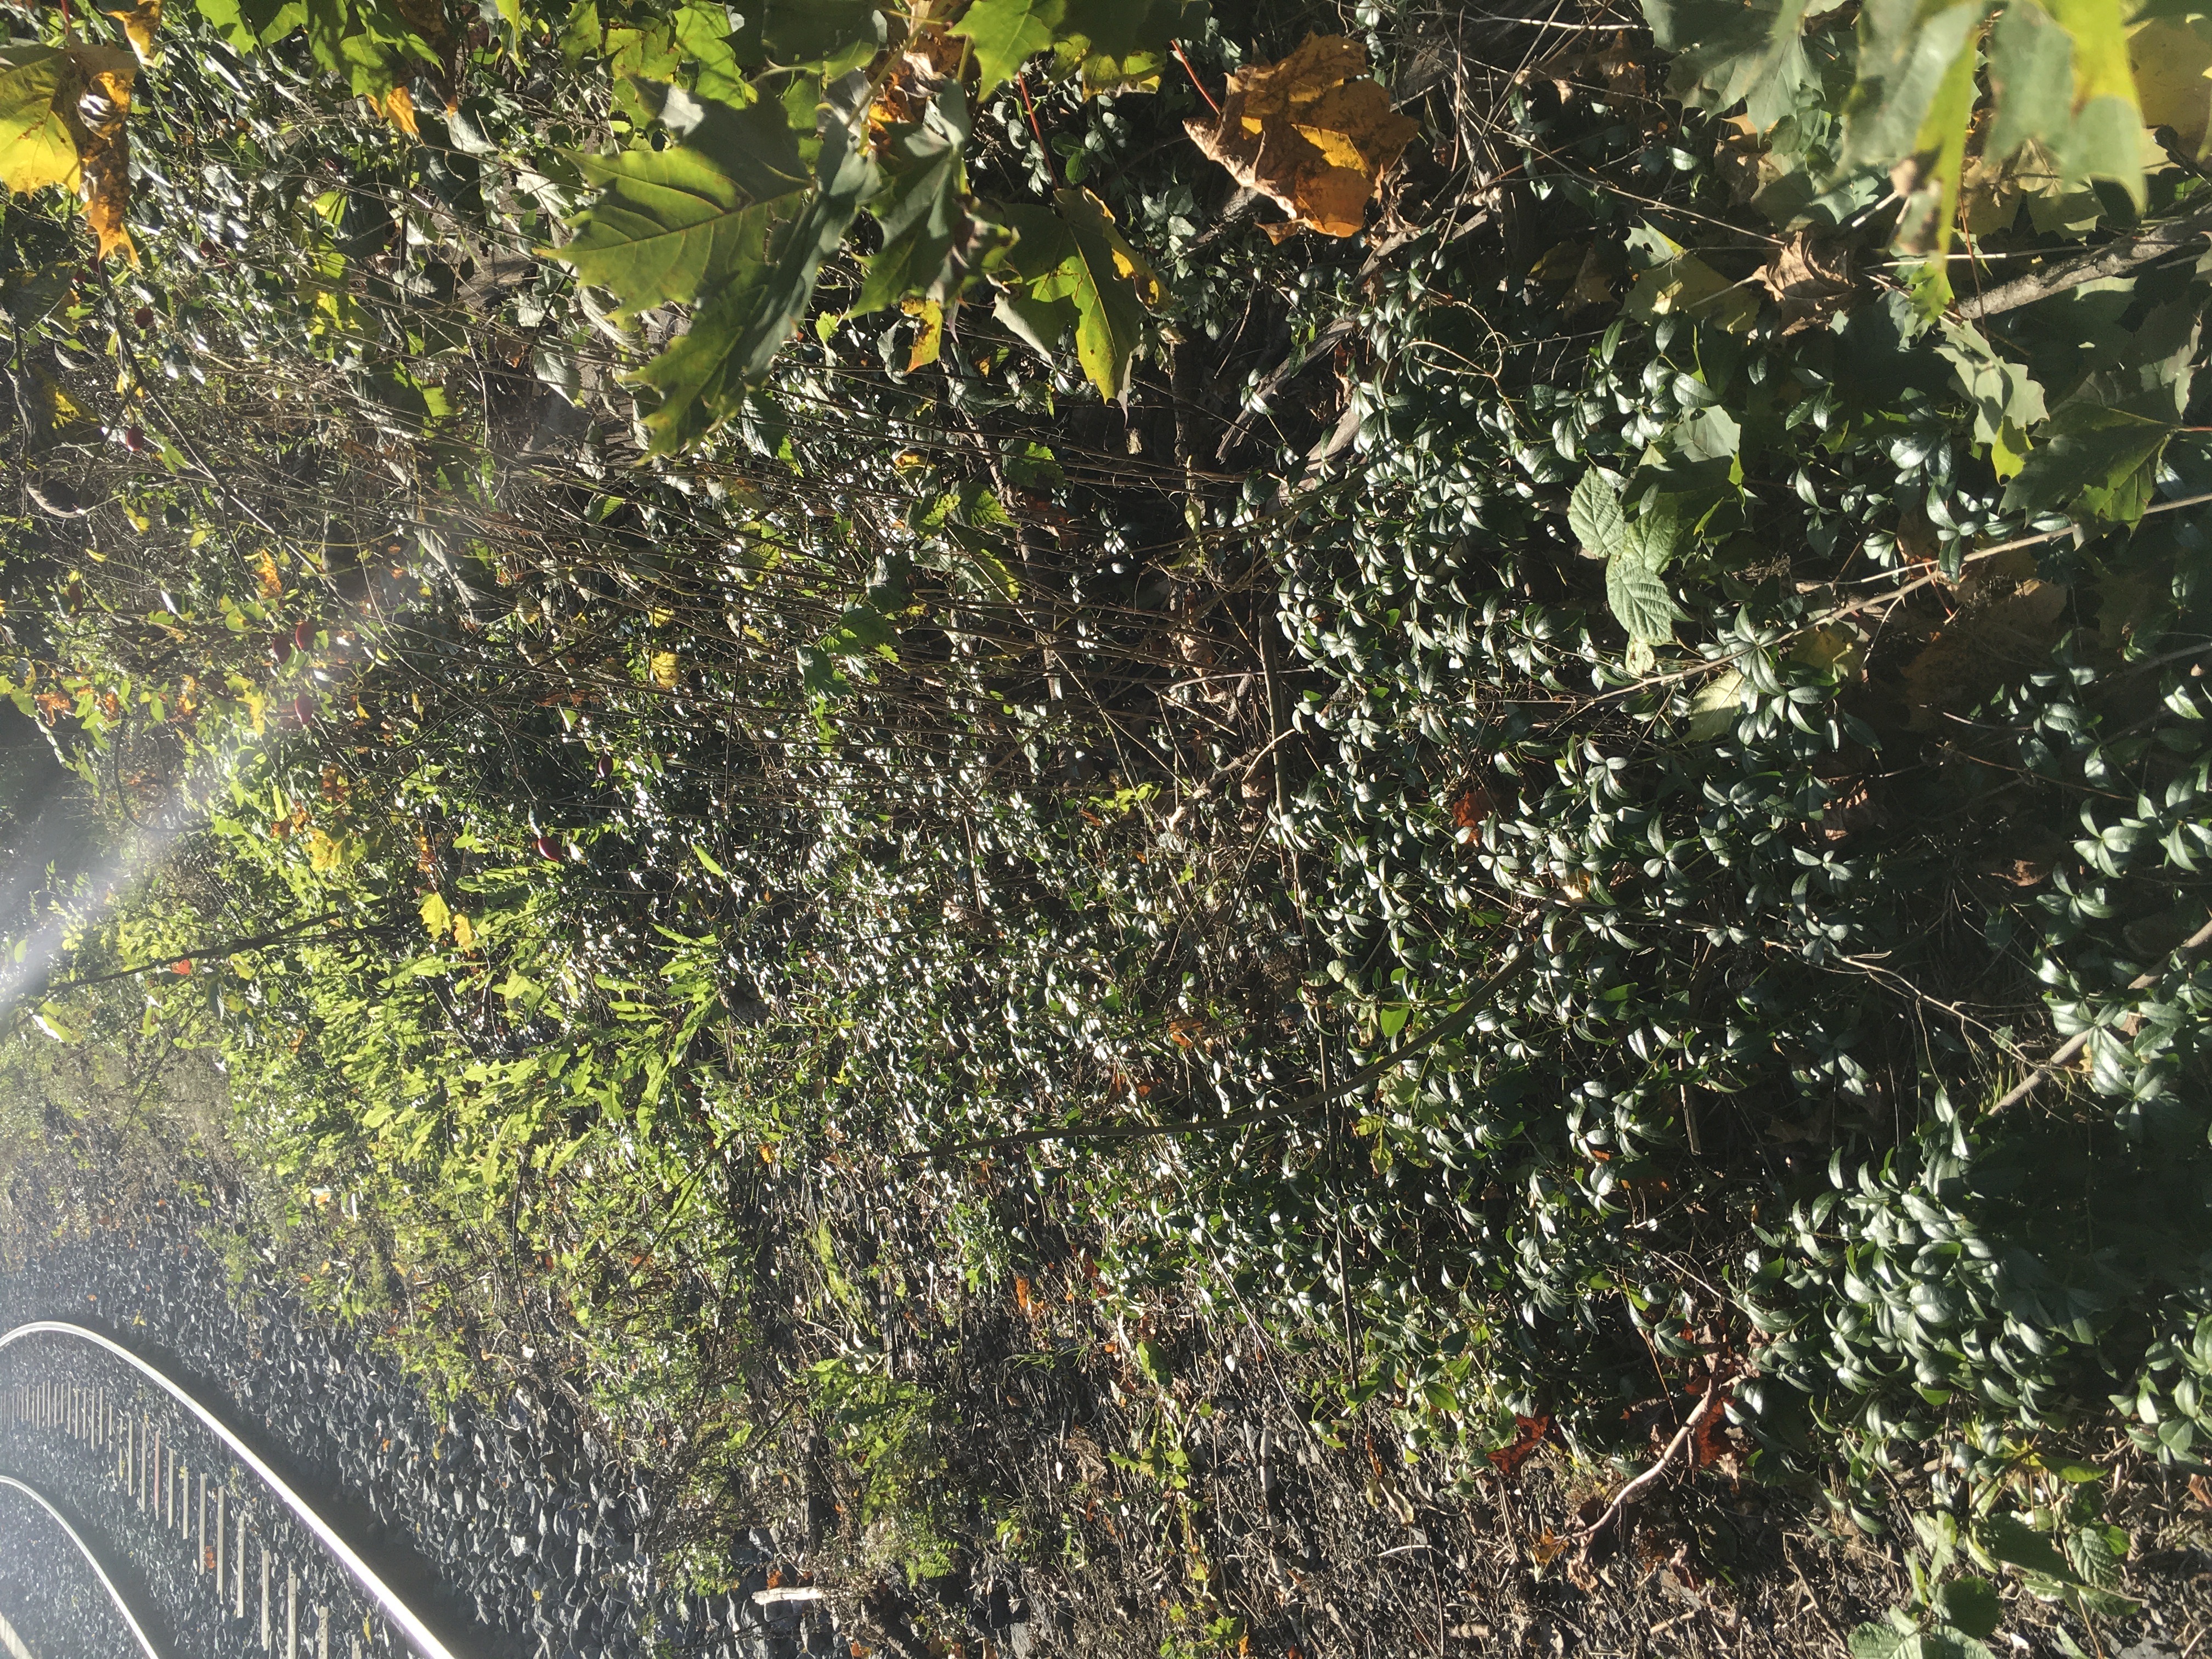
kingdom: Plantae
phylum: Tracheophyta
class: Magnoliopsida
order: Gentianales
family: Apocynaceae
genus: Vinca
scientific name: Vinca minor
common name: gravmyrt
